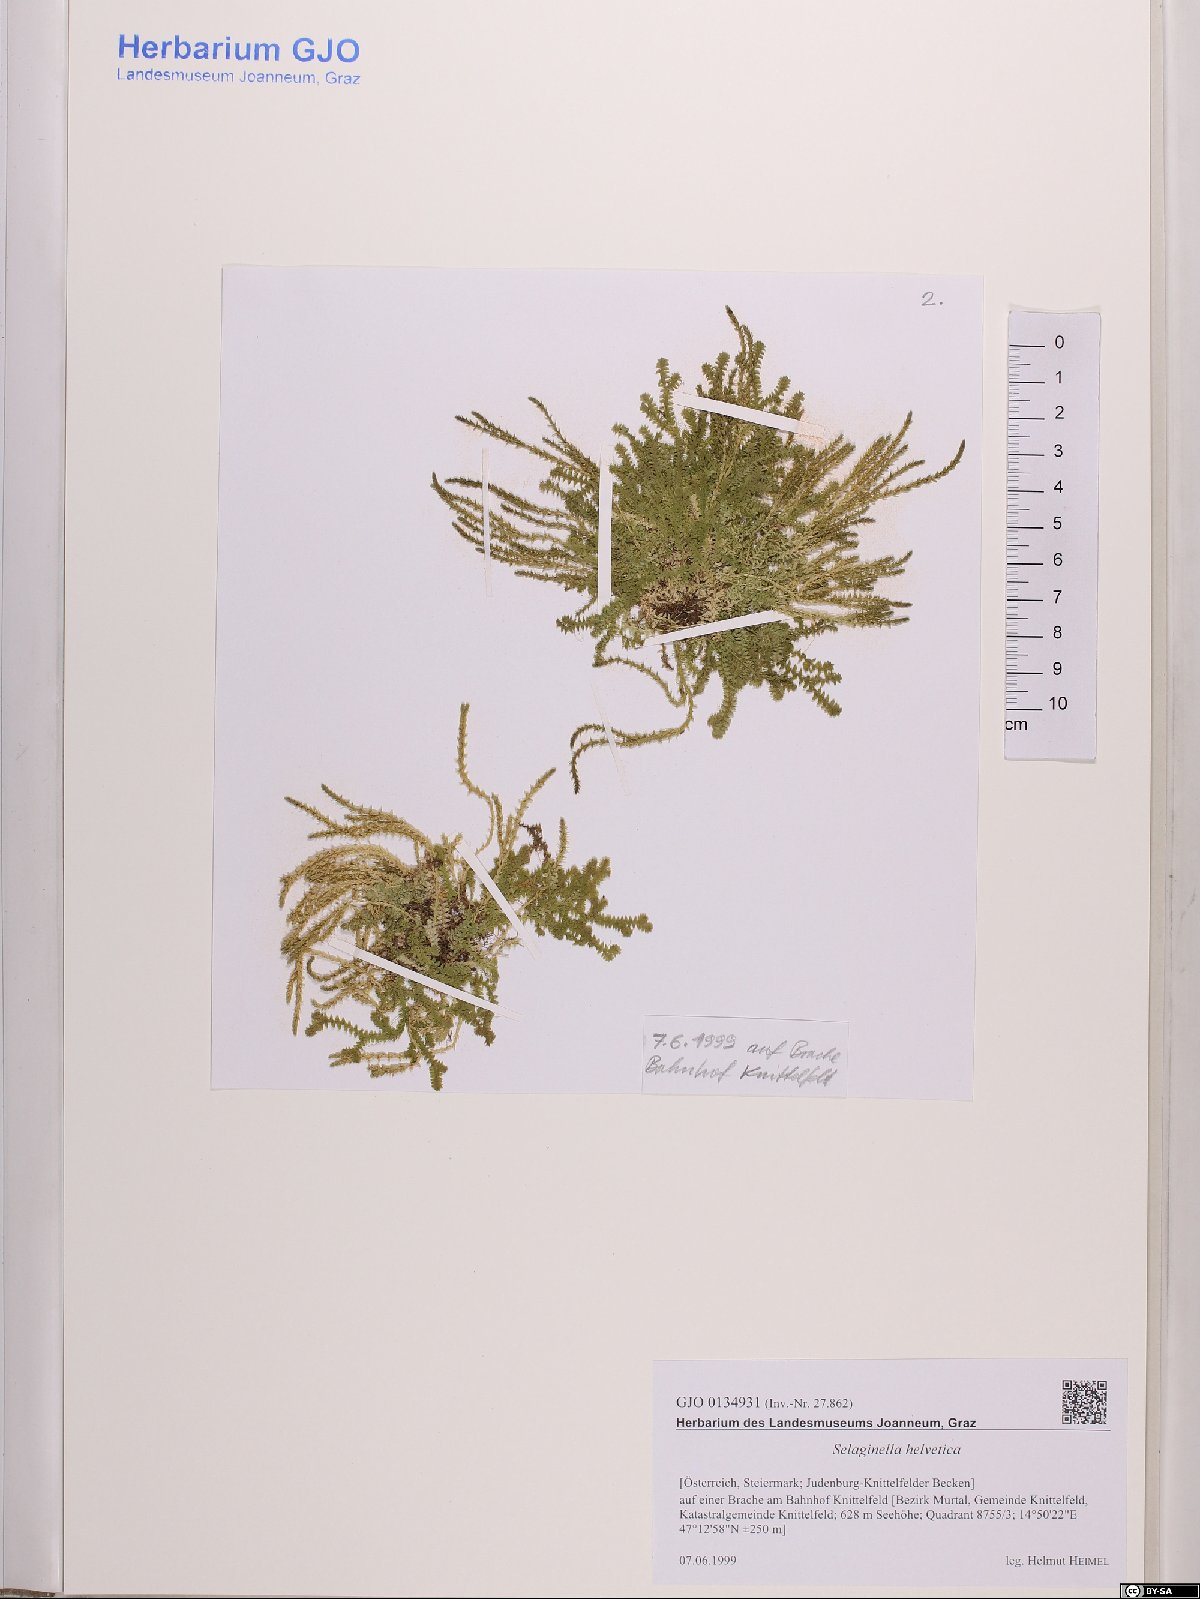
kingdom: Plantae
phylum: Tracheophyta
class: Lycopodiopsida
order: Selaginellales
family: Selaginellaceae
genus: Selaginella
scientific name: Selaginella helvetica
